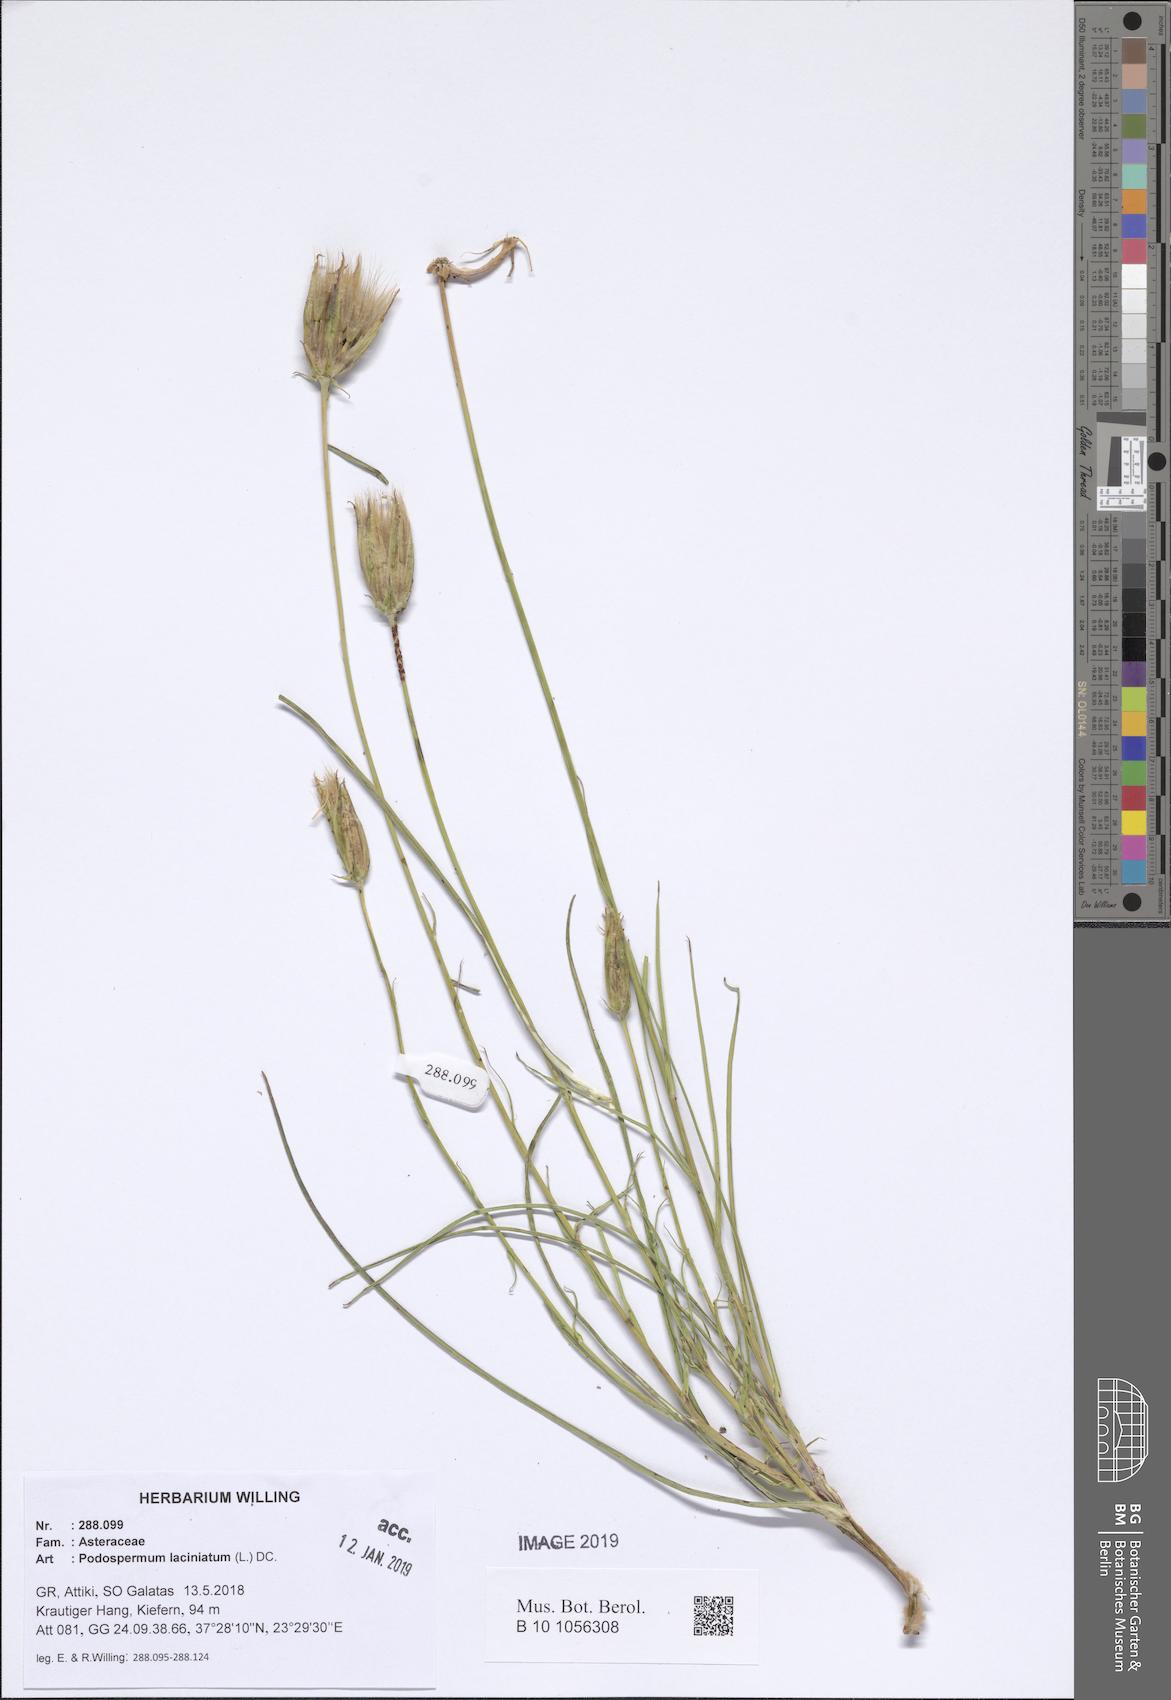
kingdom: Plantae
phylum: Tracheophyta
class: Magnoliopsida
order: Asterales
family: Asteraceae
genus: Scorzonera
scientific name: Scorzonera laciniata
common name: Cutleaf vipergrass
